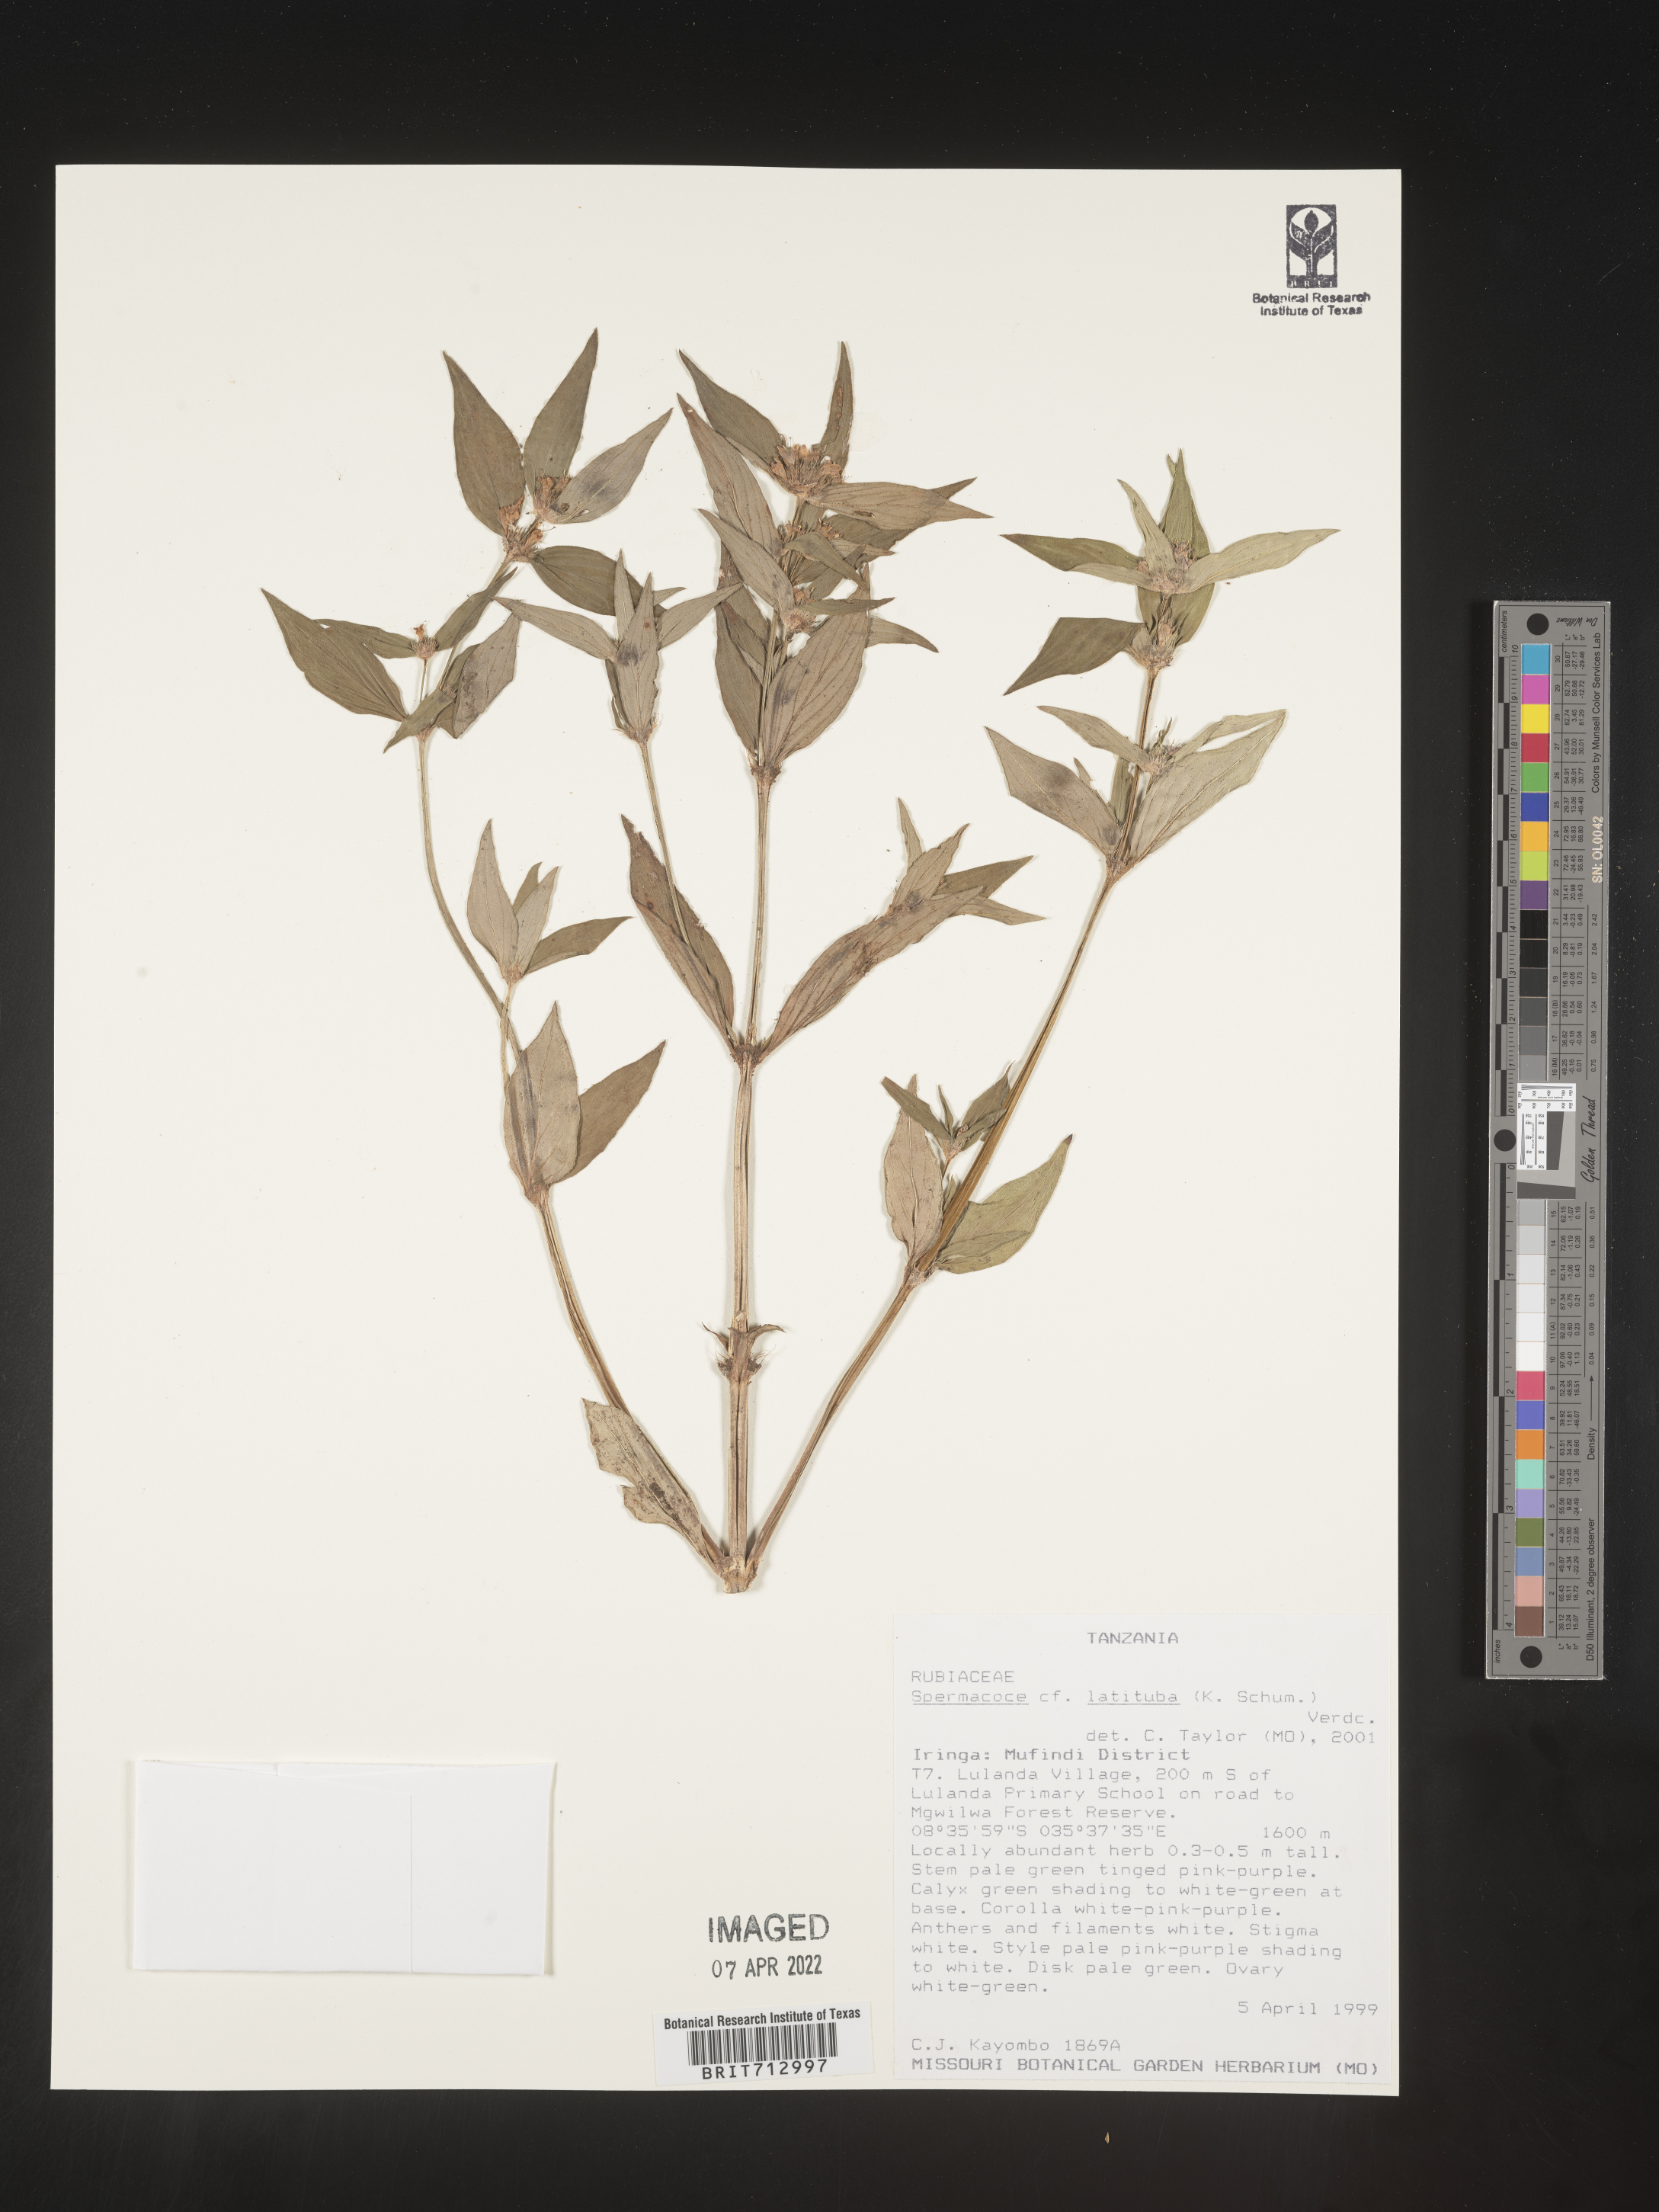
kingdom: Plantae
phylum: Tracheophyta
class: Magnoliopsida
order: Gentianales
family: Rubiaceae
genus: Spermacoce
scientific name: Spermacoce
